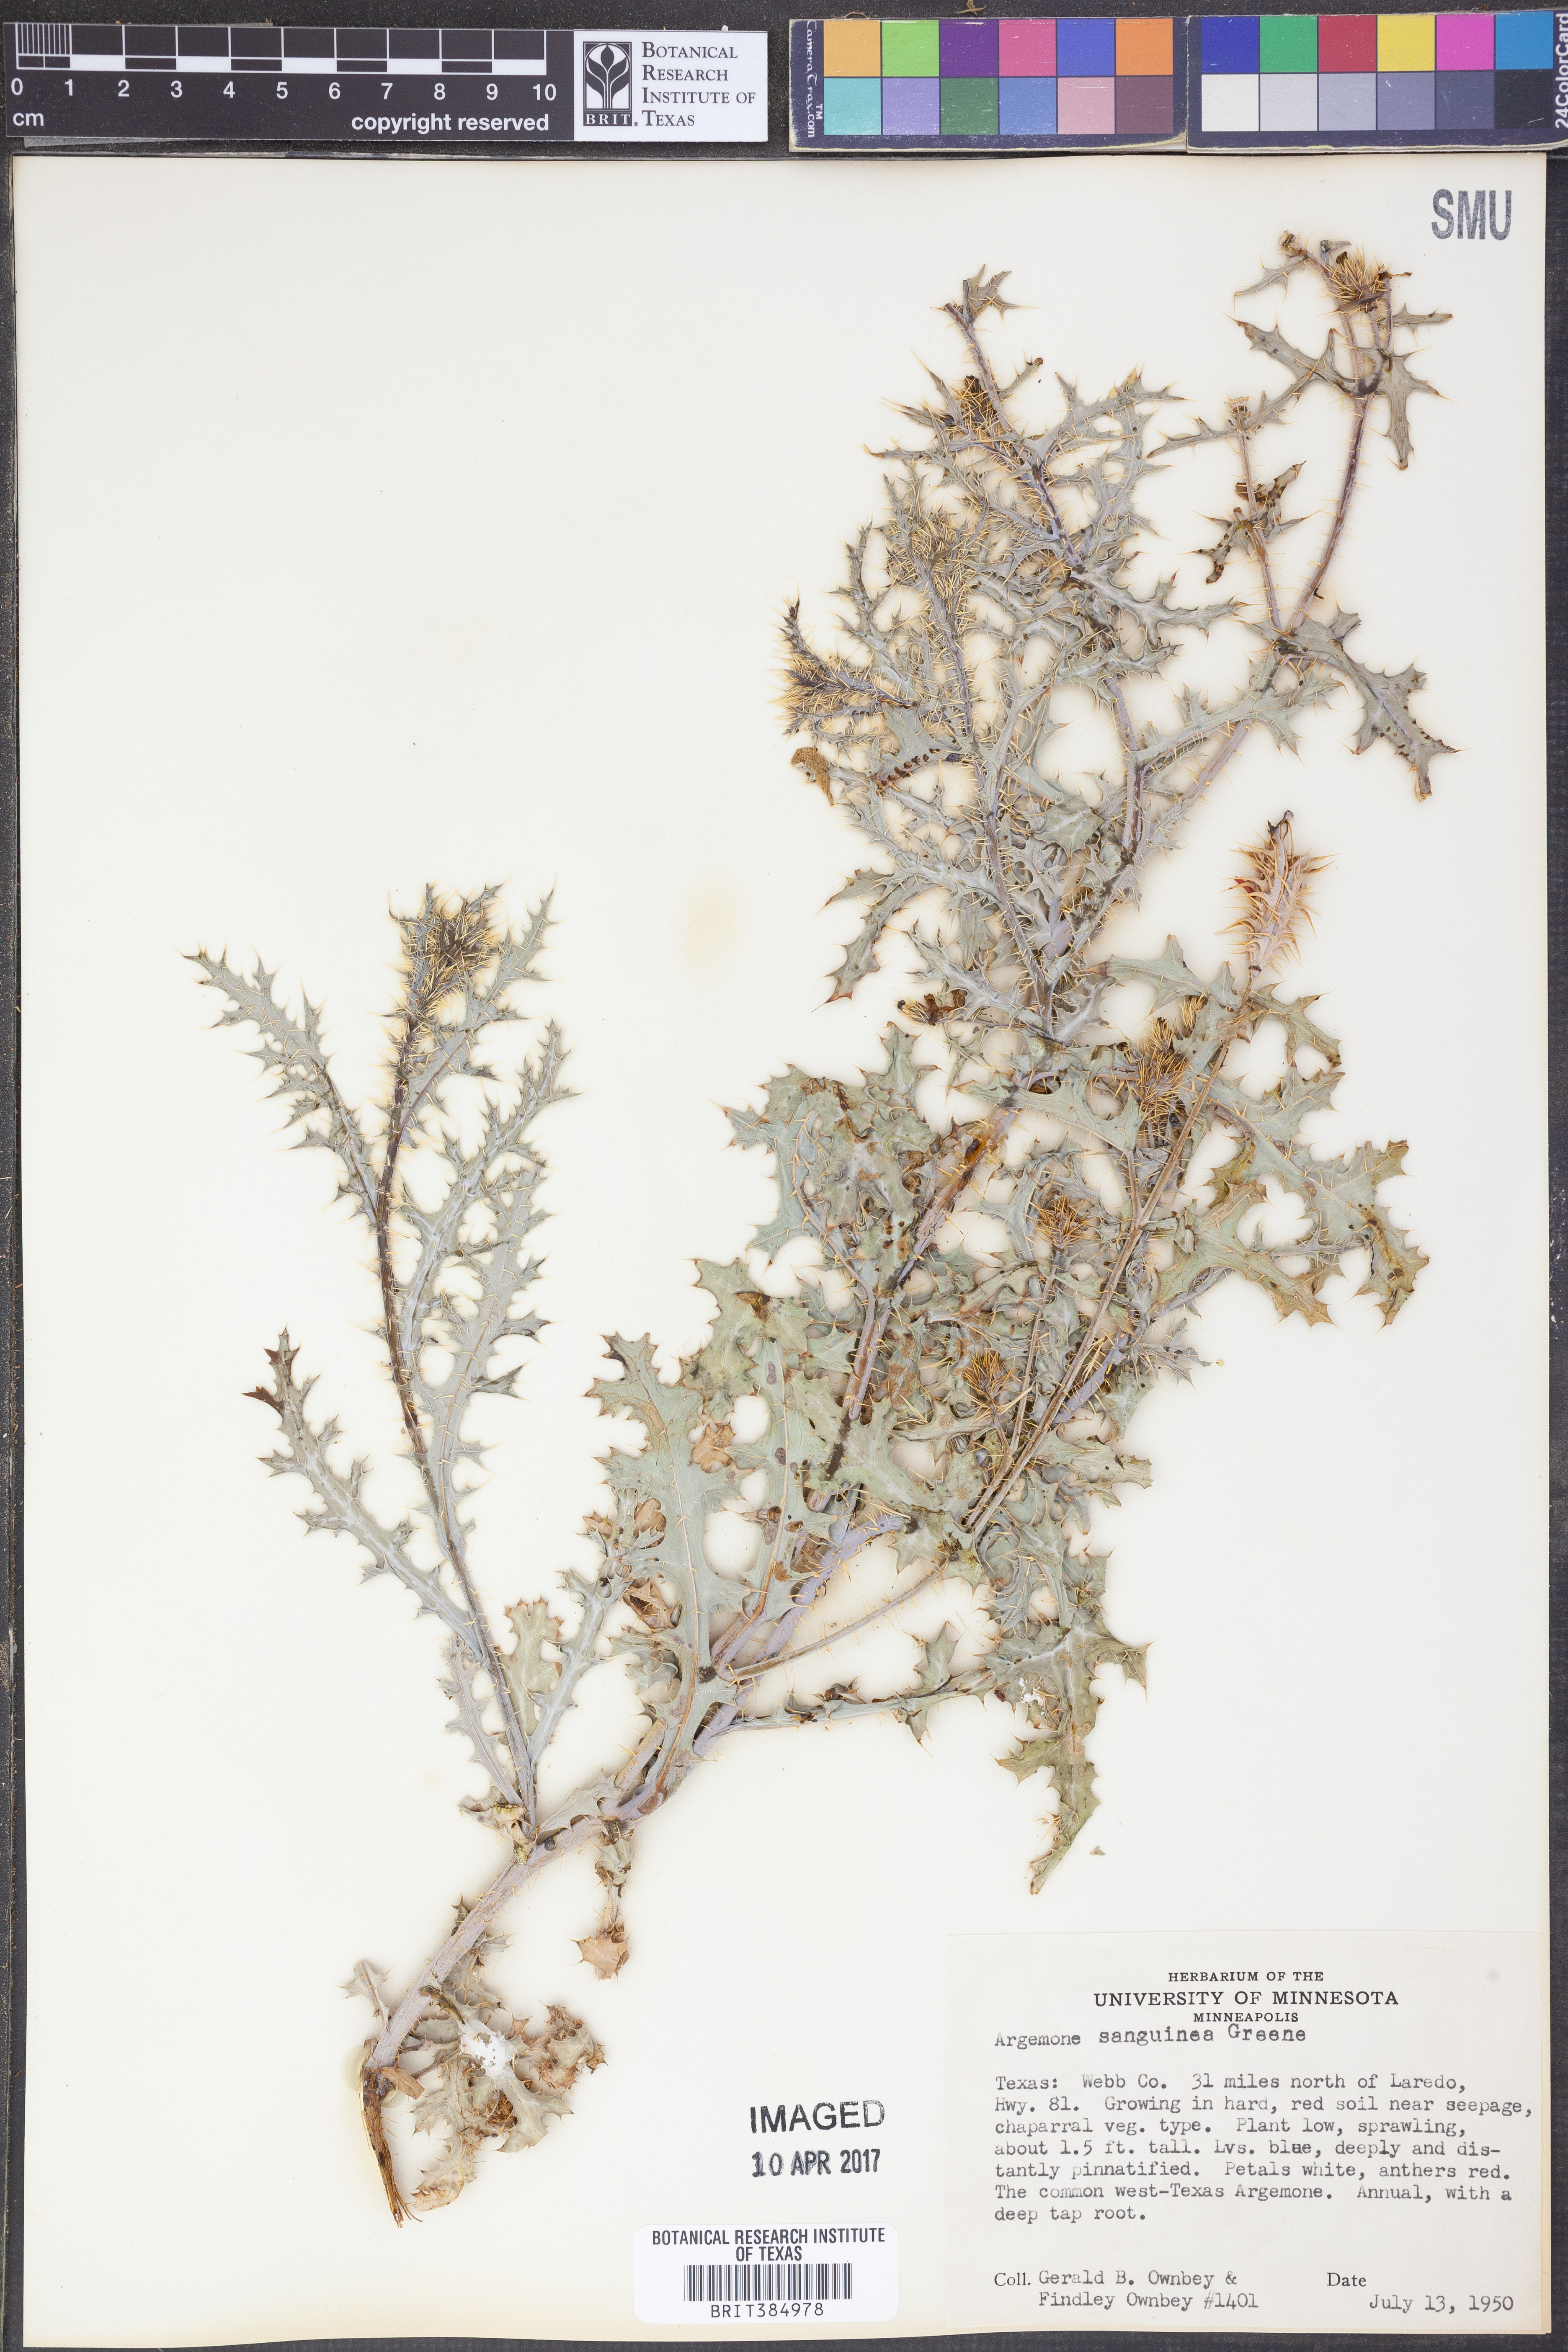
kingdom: Plantae
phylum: Tracheophyta
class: Magnoliopsida
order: Ranunculales
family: Papaveraceae
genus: Argemone
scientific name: Argemone sanguinea
